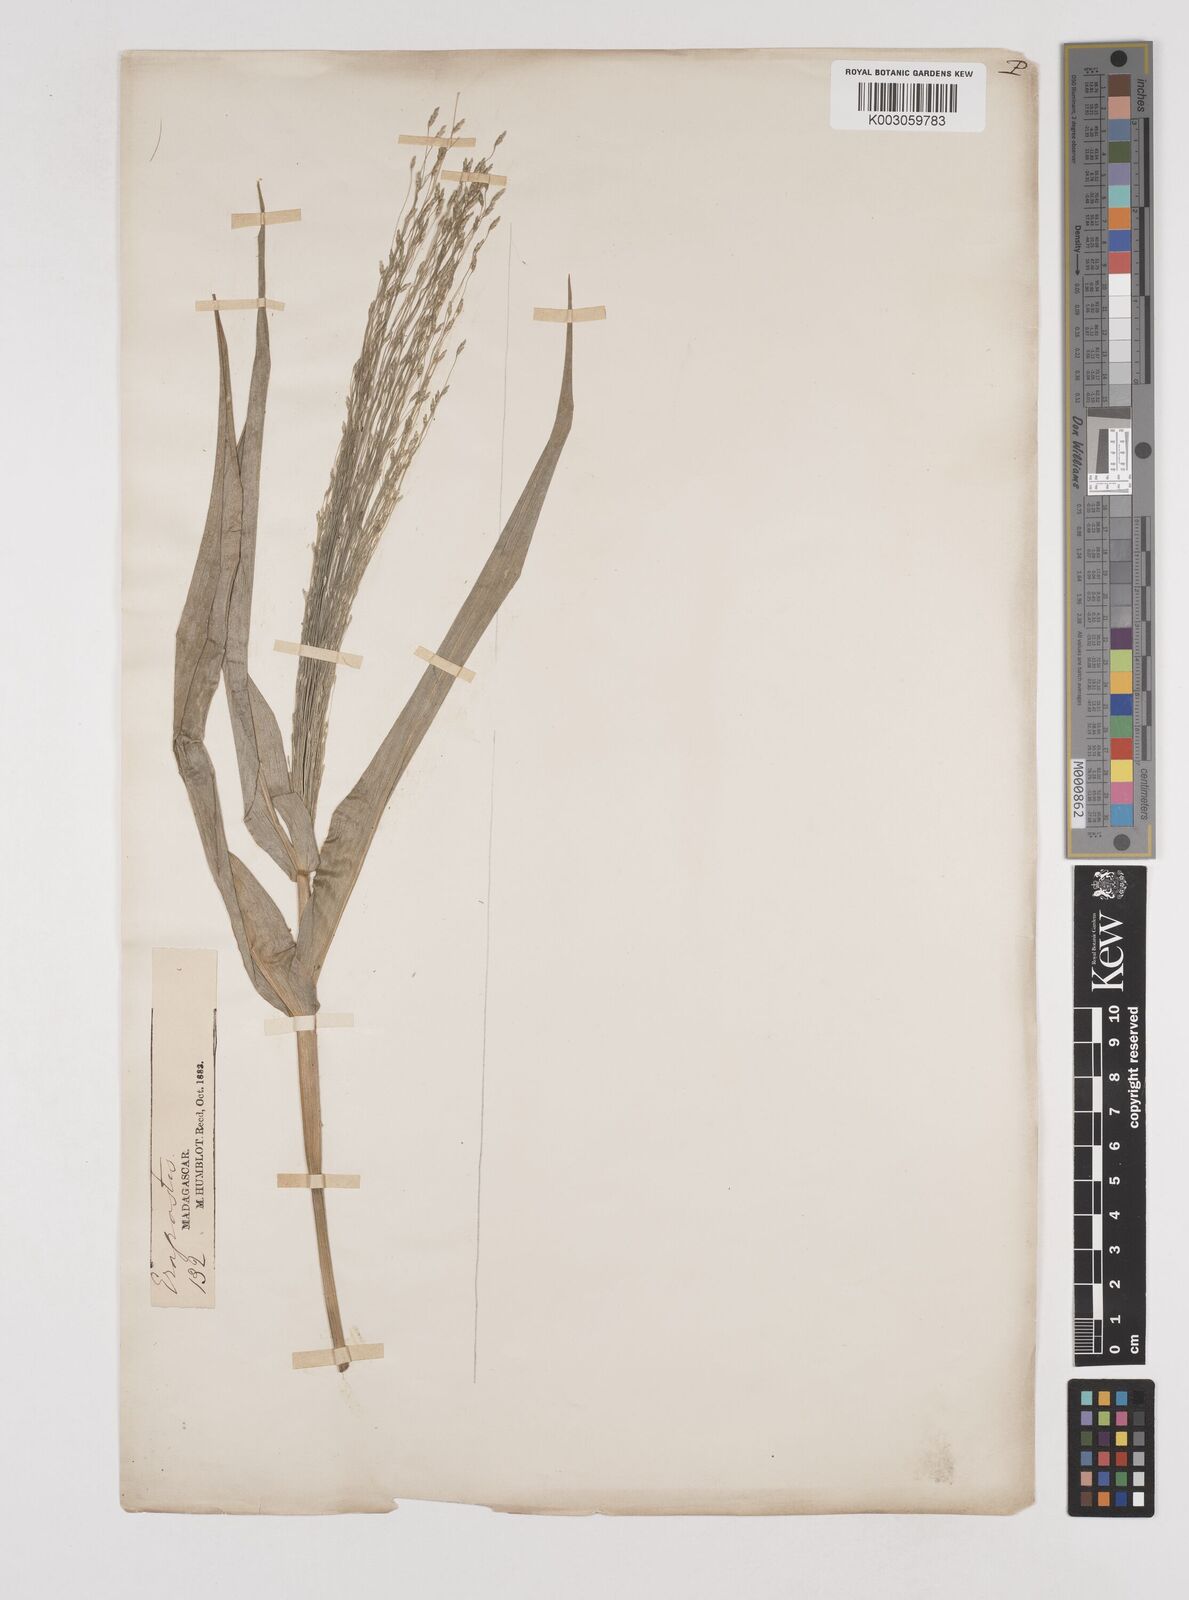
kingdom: Plantae
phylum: Tracheophyta
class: Liliopsida
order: Poales
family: Poaceae
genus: Megastachya
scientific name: Megastachya madagascariensis
